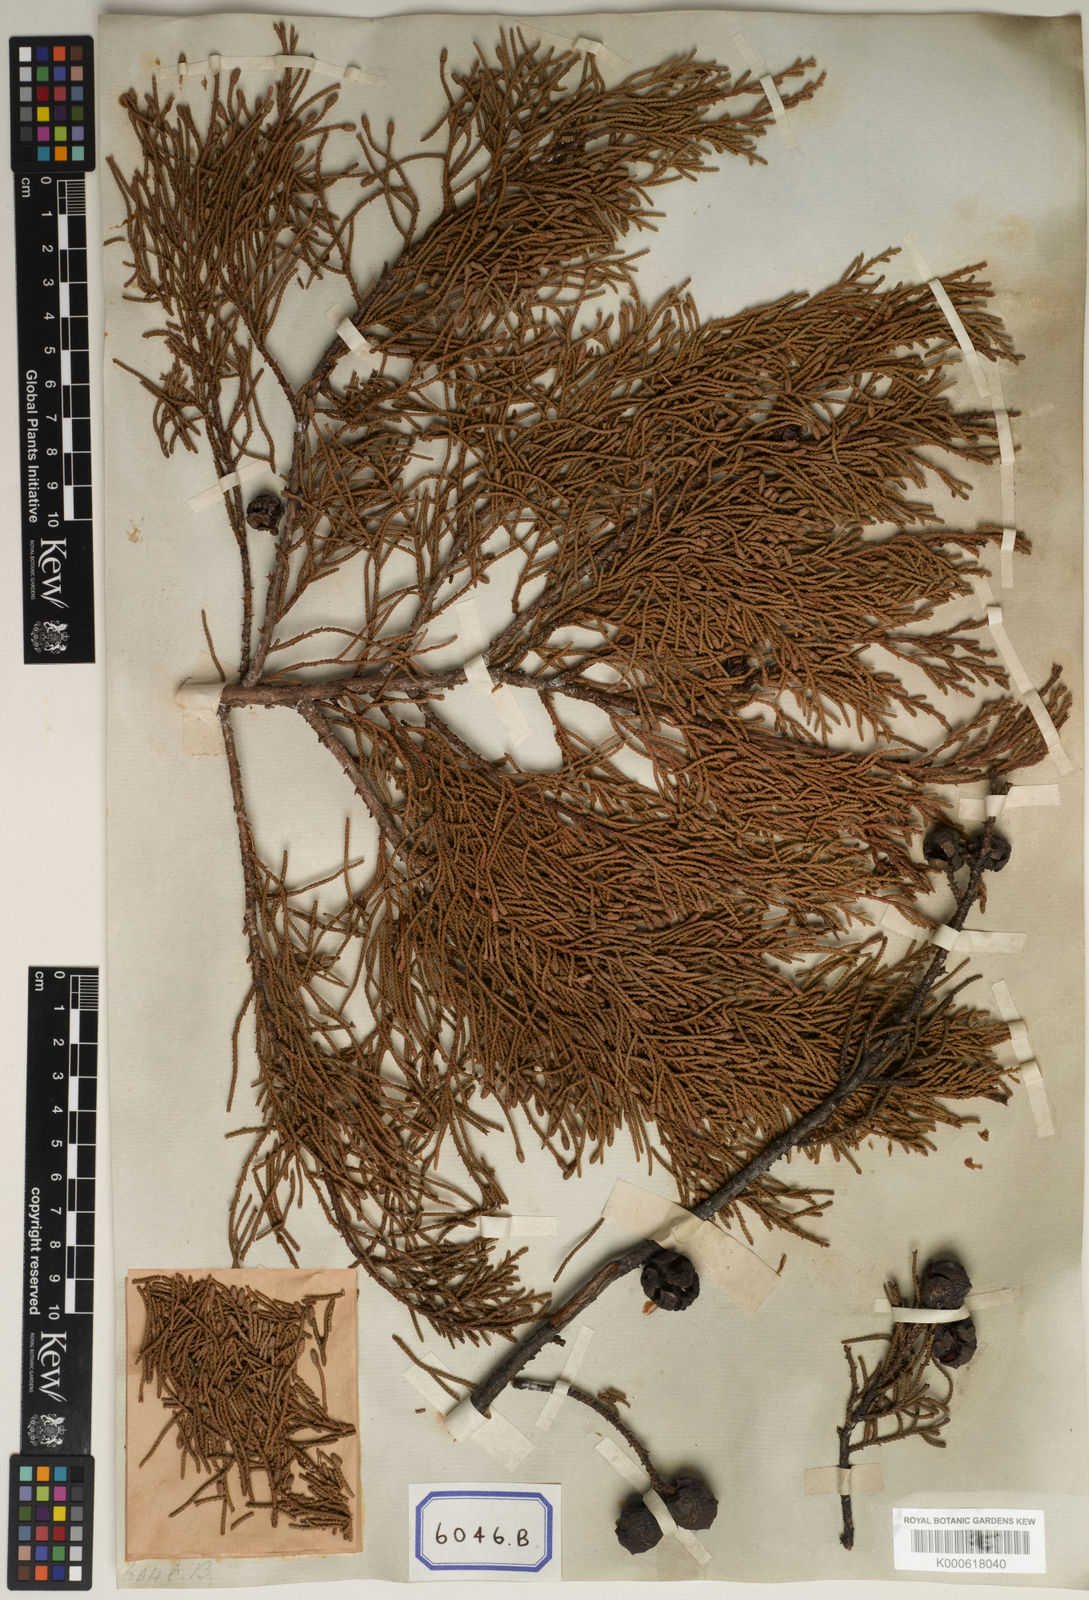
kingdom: Plantae
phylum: Tracheophyta
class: Pinopsida
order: Pinales
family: Cupressaceae
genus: Cupressus
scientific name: Cupressus
